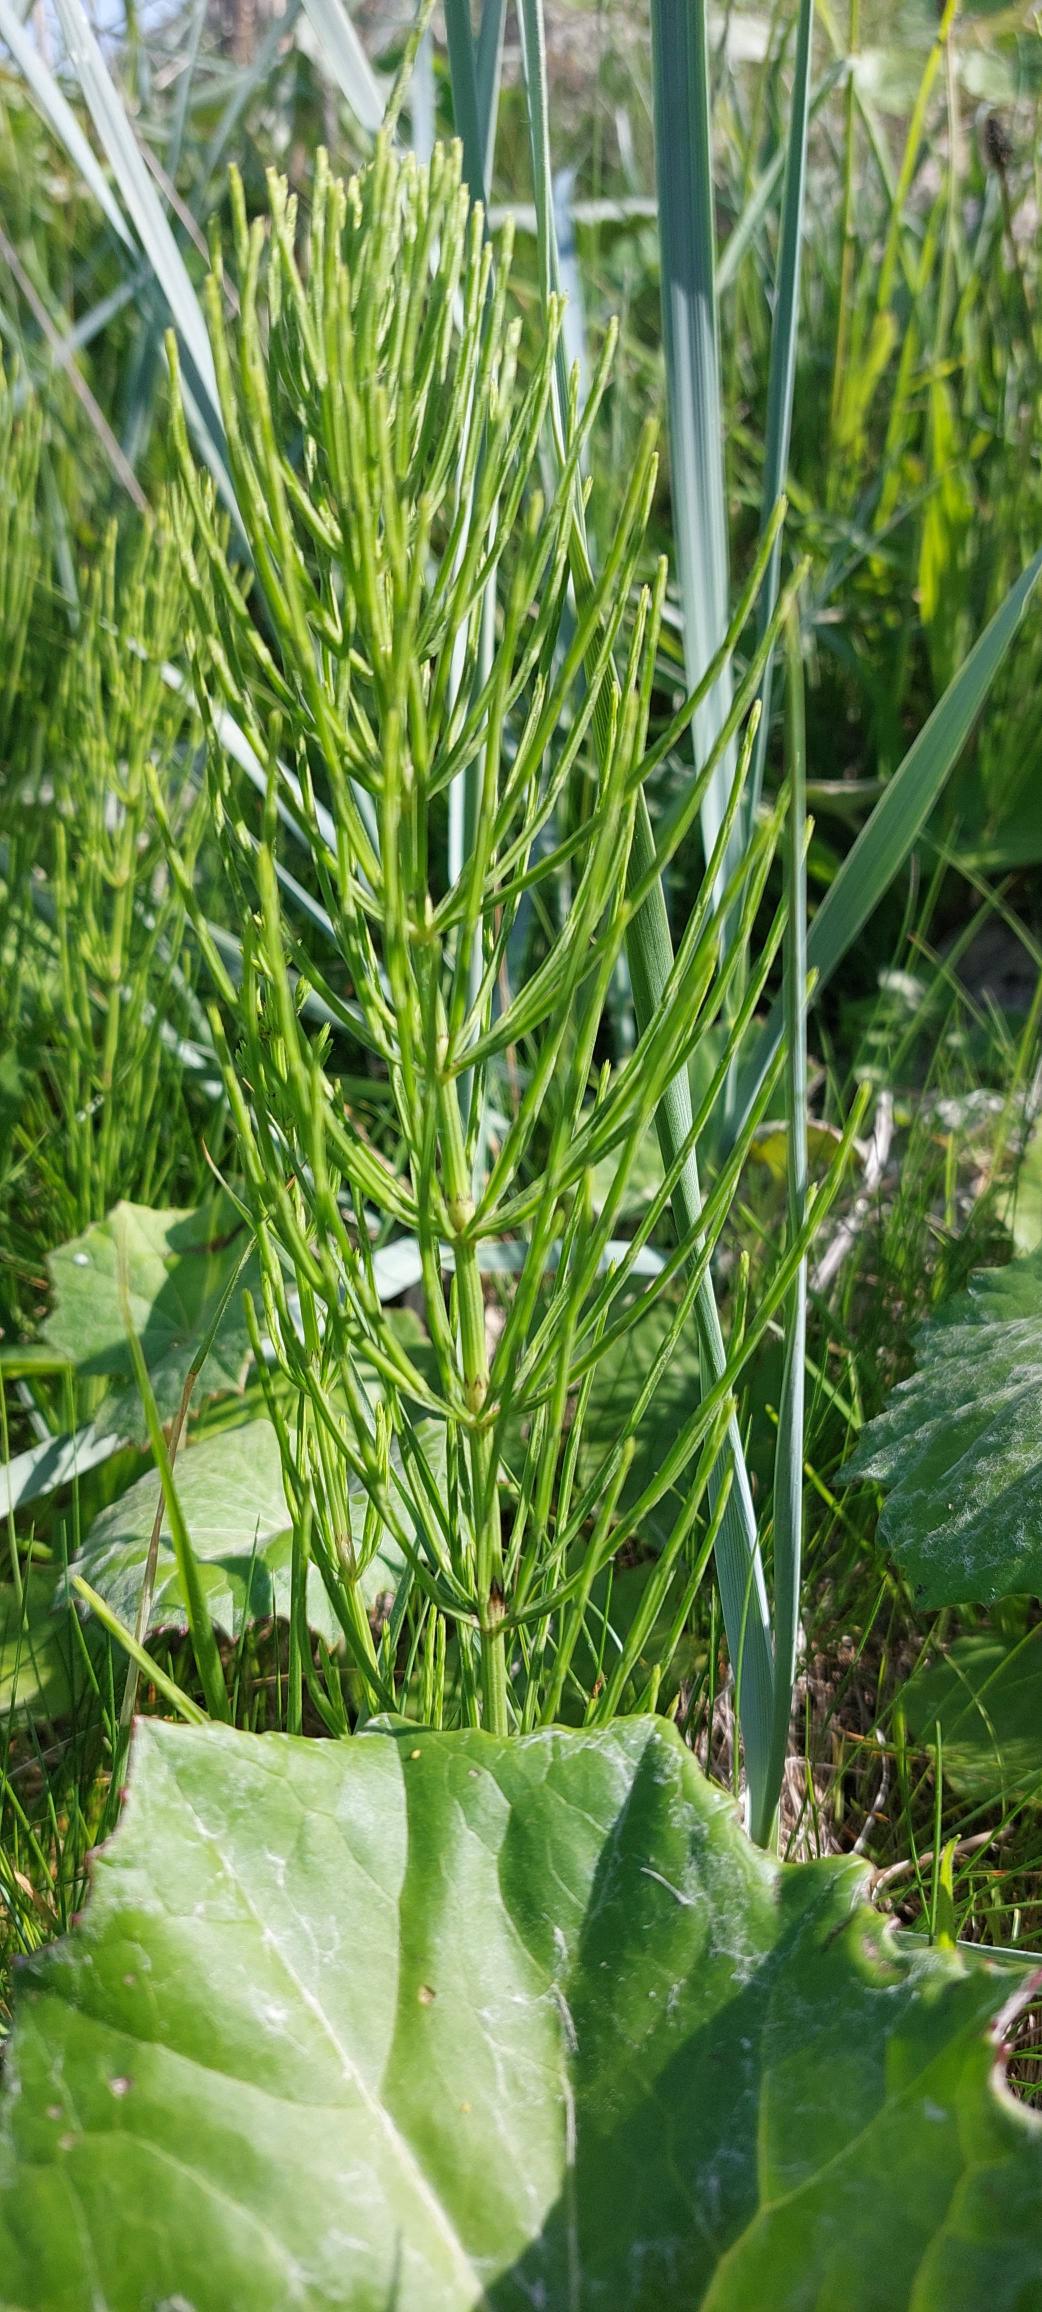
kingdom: Plantae
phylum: Tracheophyta
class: Polypodiopsida
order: Equisetales
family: Equisetaceae
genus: Equisetum
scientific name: Equisetum arvense
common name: Ager-padderok
